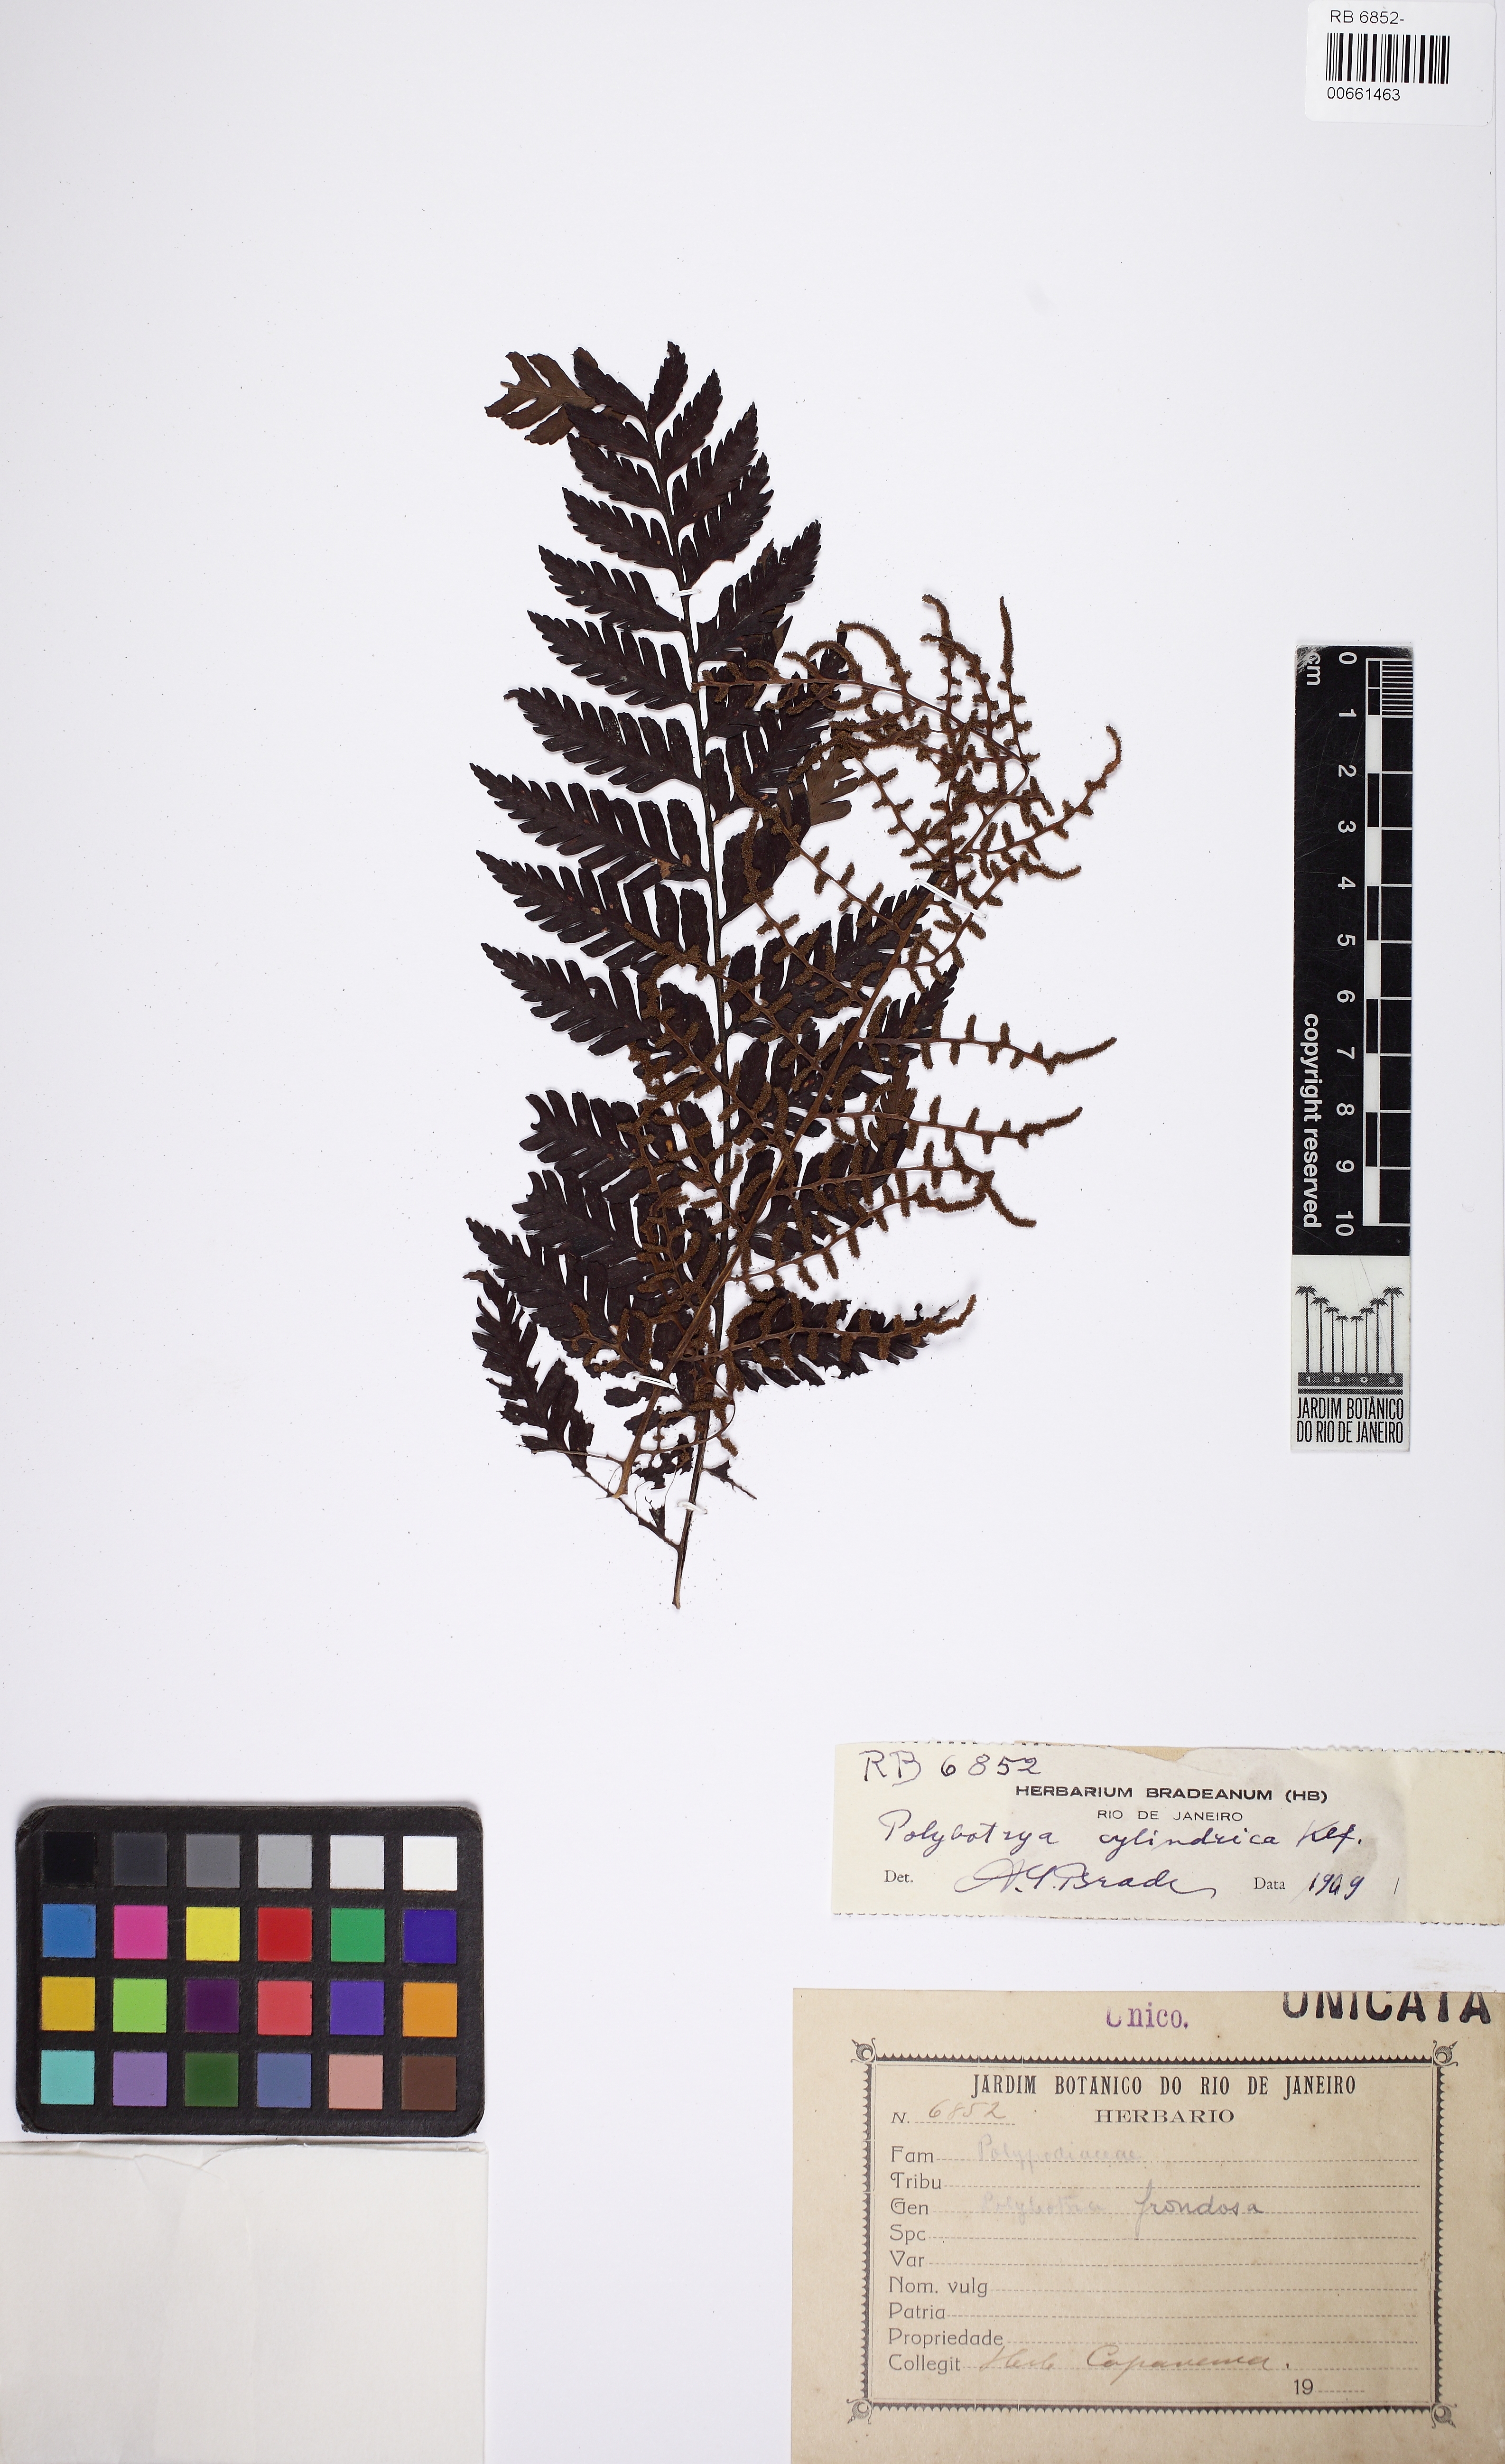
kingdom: Plantae
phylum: Tracheophyta
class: Polypodiopsida
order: Polypodiales
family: Dryopteridaceae
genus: Polybotrya
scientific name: Polybotrya cylindrica
